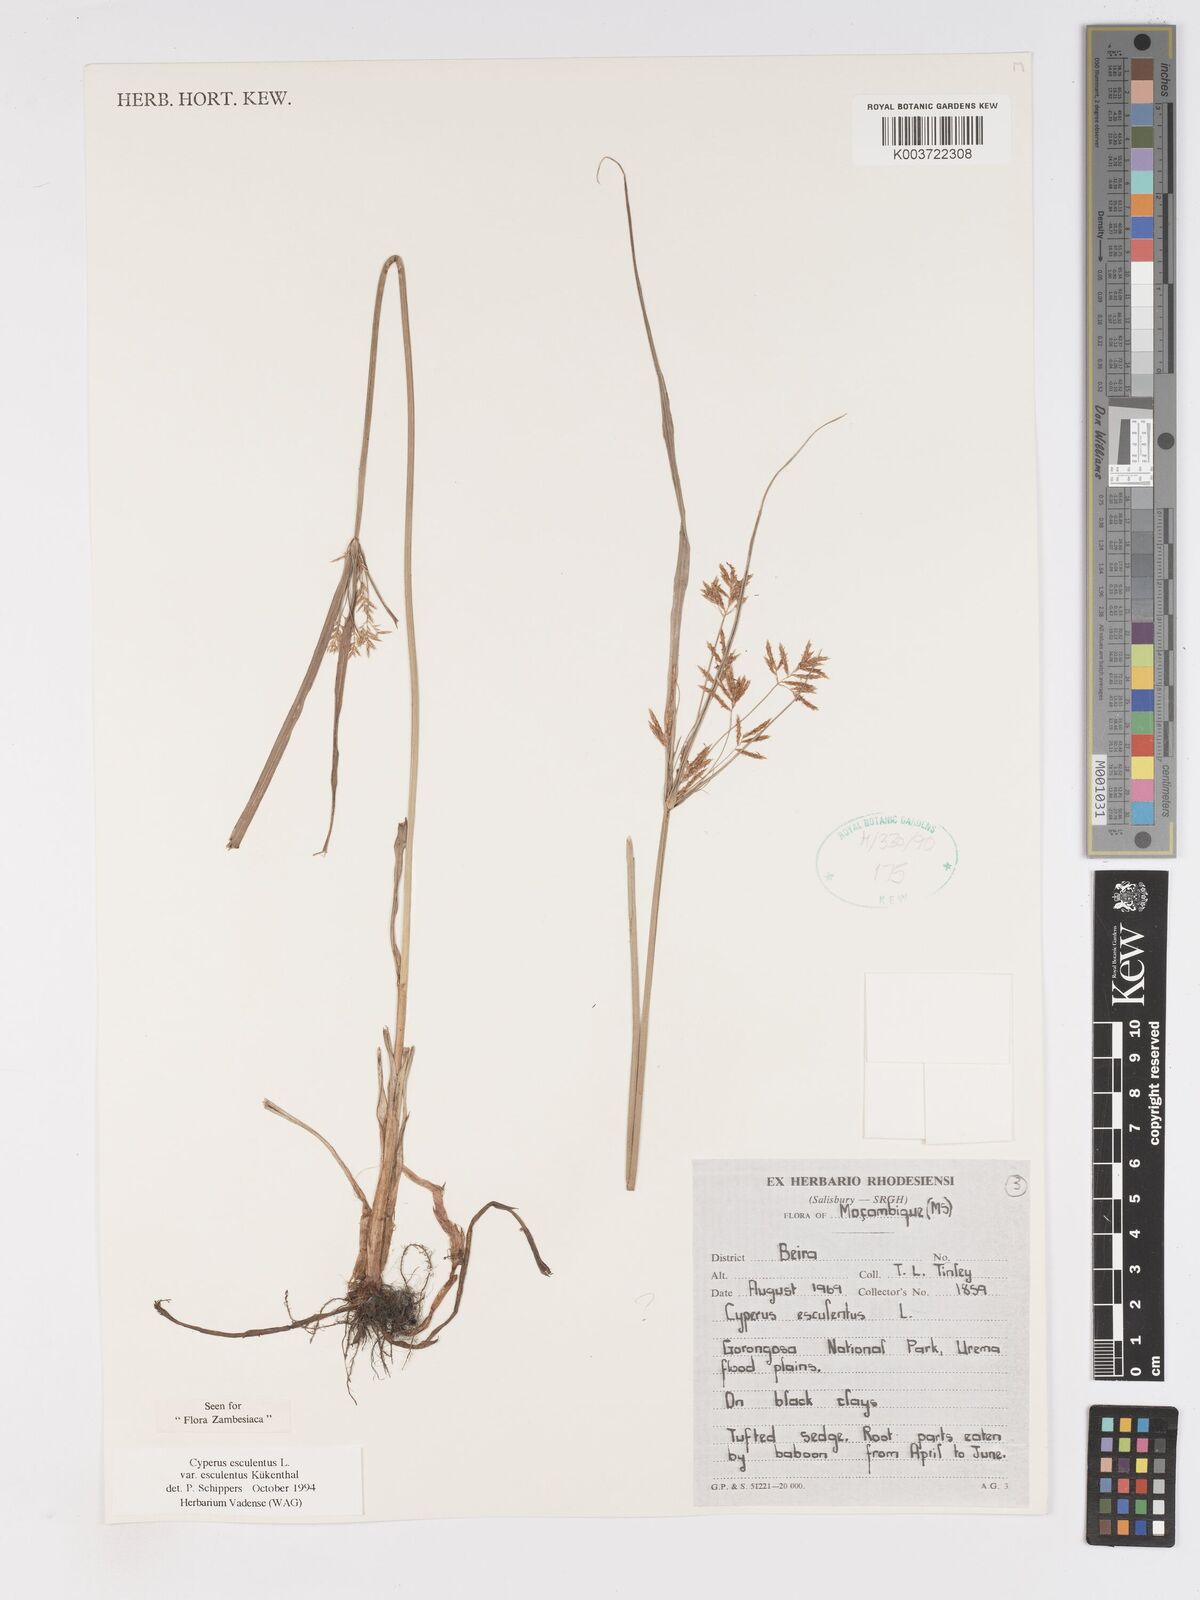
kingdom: Plantae
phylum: Tracheophyta
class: Liliopsida
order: Poales
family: Cyperaceae
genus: Cyperus
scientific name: Cyperus esculentus
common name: Yellow nutsedge
